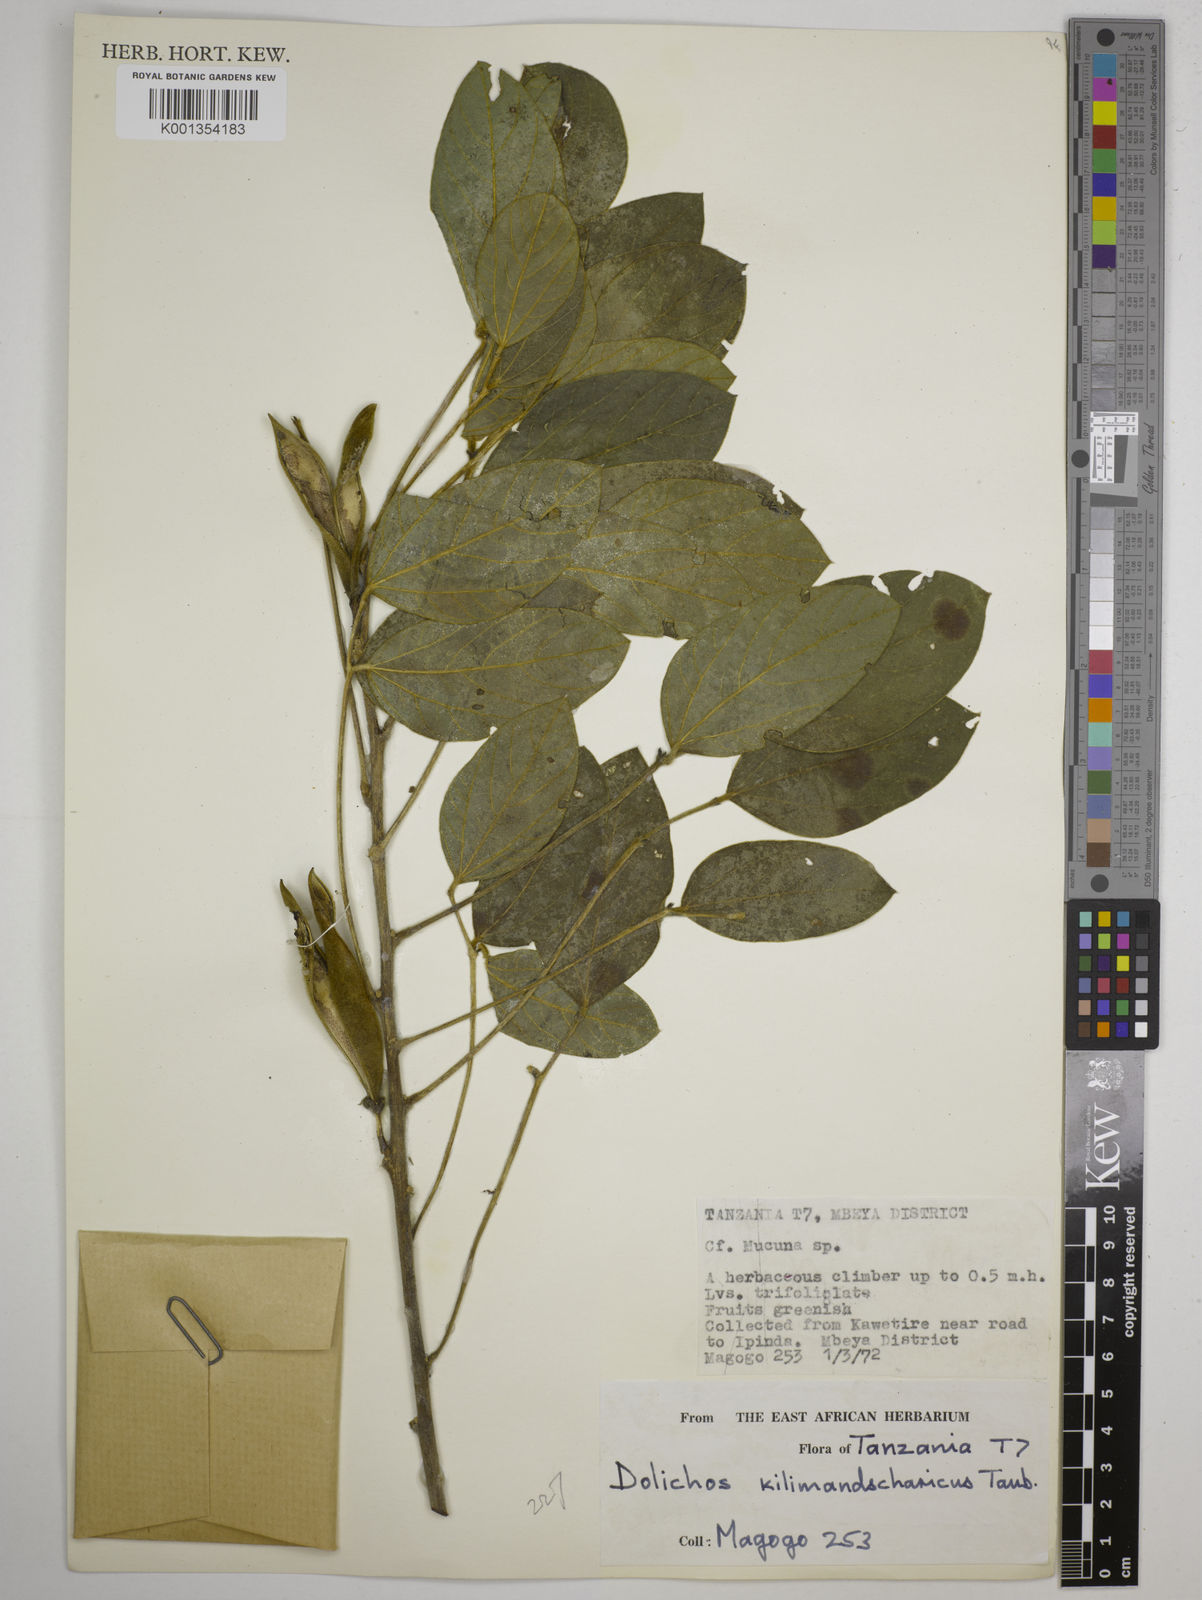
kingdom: Plantae
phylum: Tracheophyta
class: Magnoliopsida
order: Fabales
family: Fabaceae
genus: Dolichos
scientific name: Dolichos kilimandscharicus
